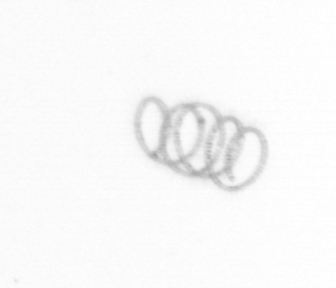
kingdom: Chromista
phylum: Ochrophyta
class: Bacillariophyceae
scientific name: Bacillariophyceae
